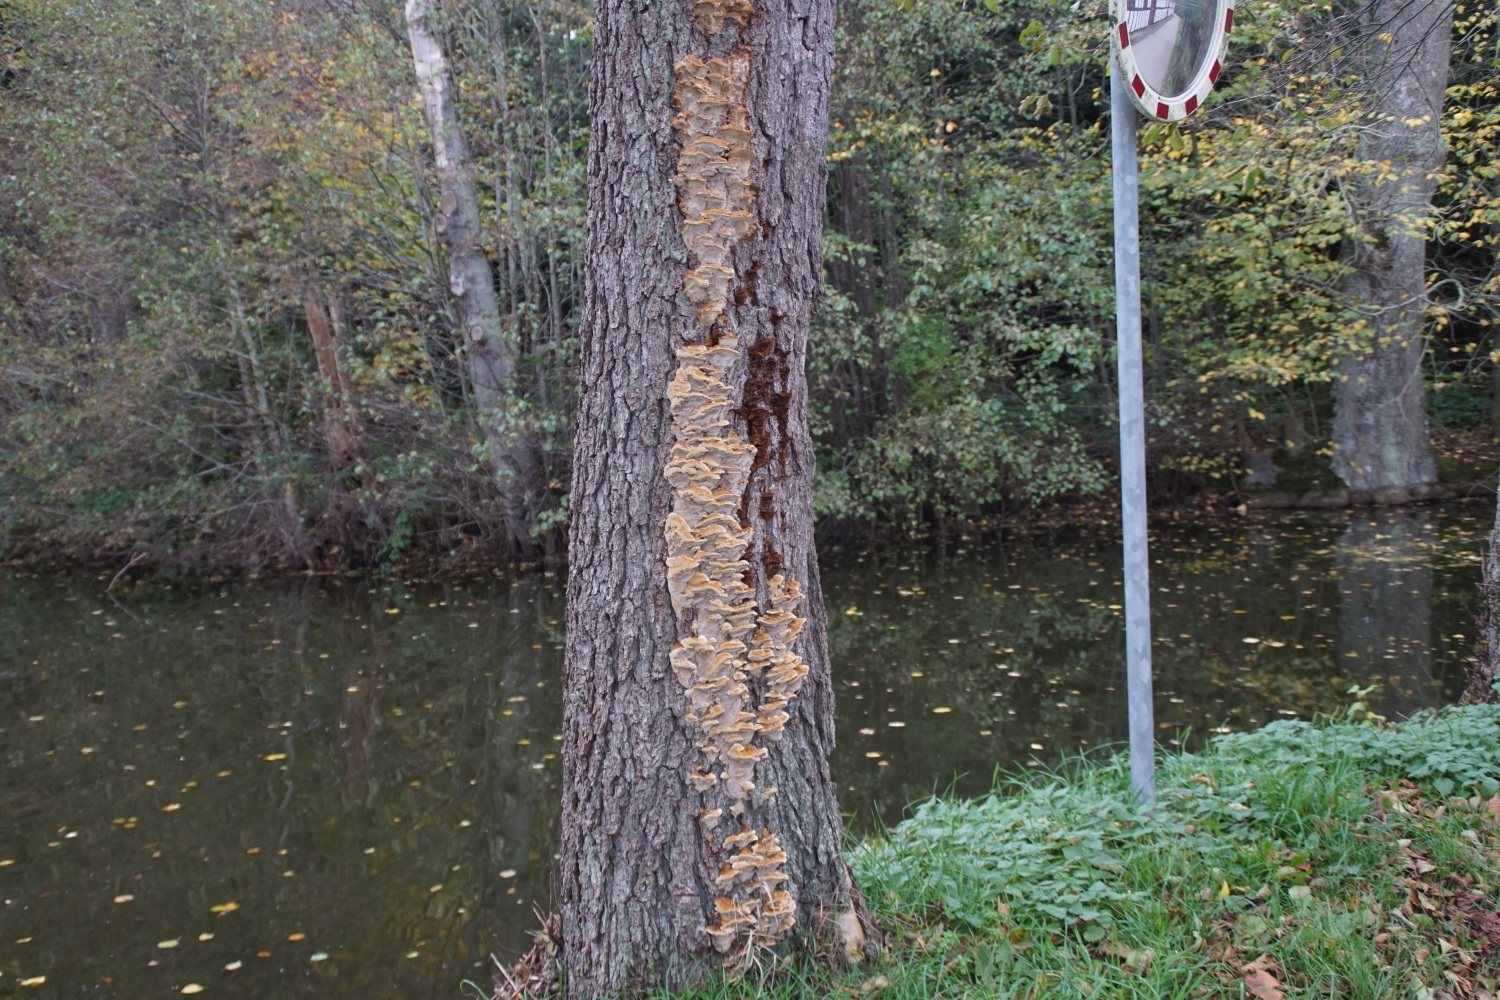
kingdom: Fungi
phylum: Basidiomycota
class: Agaricomycetes
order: Hymenochaetales
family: Hymenochaetaceae
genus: Xanthoporia
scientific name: Xanthoporia radiata
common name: elle-spejlporesvamp
